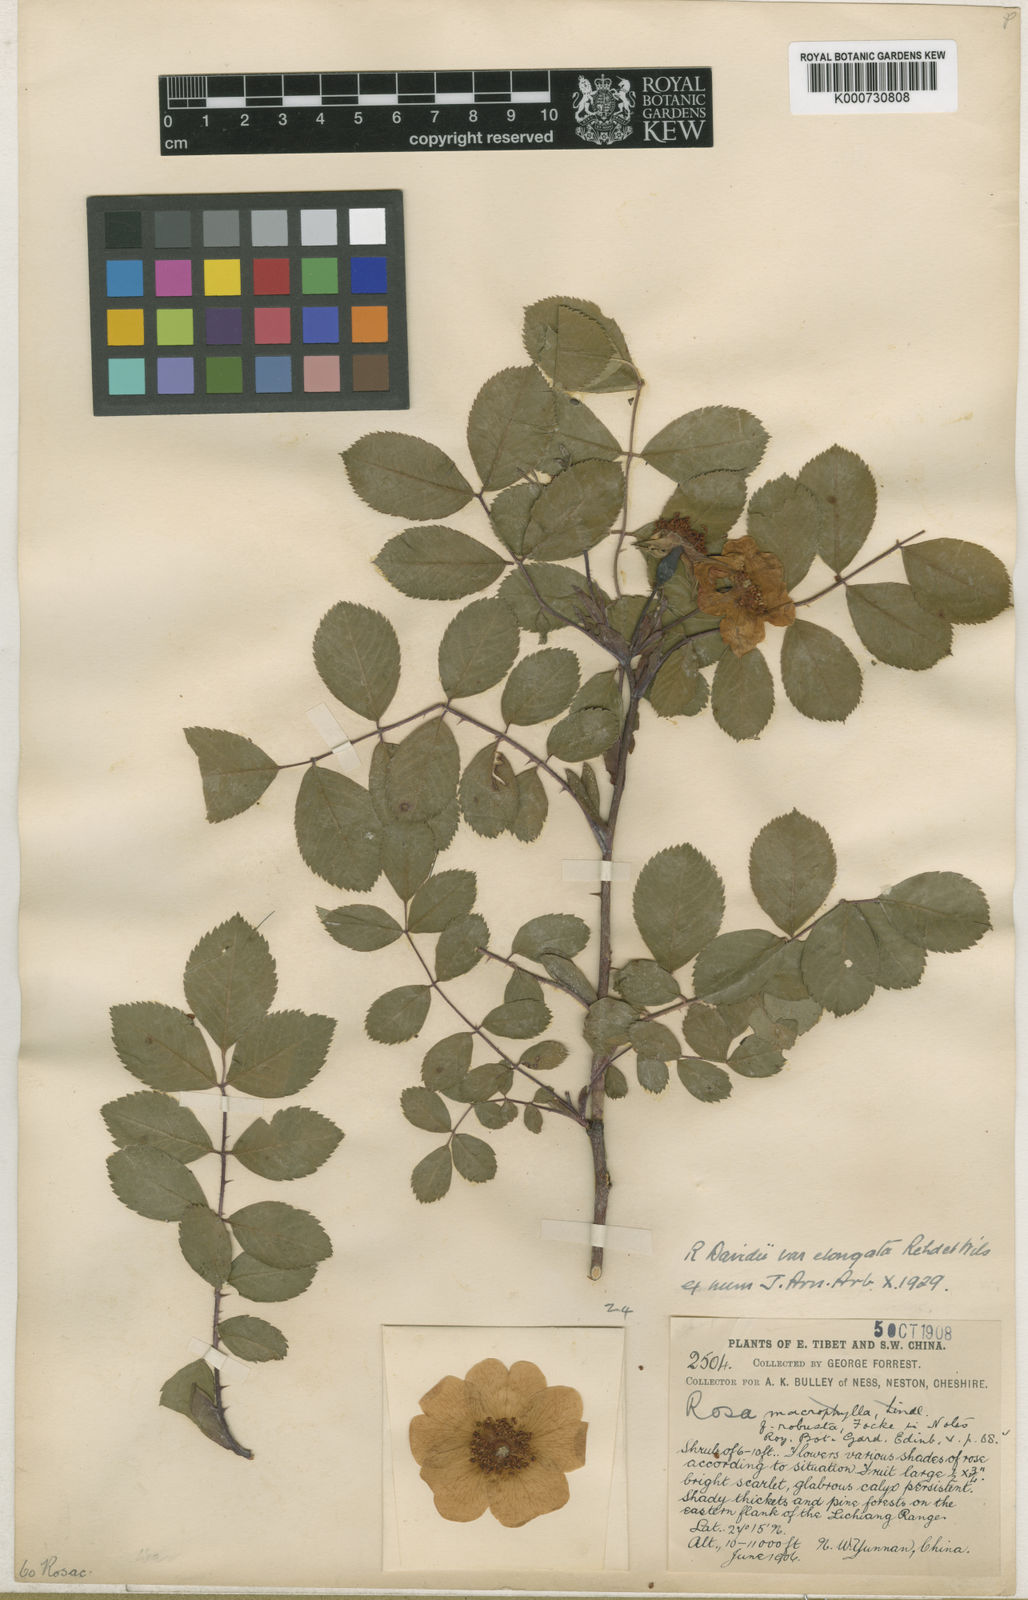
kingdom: Plantae
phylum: Tracheophyta
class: Magnoliopsida
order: Rosales
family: Rosaceae
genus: Rosa
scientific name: Rosa
